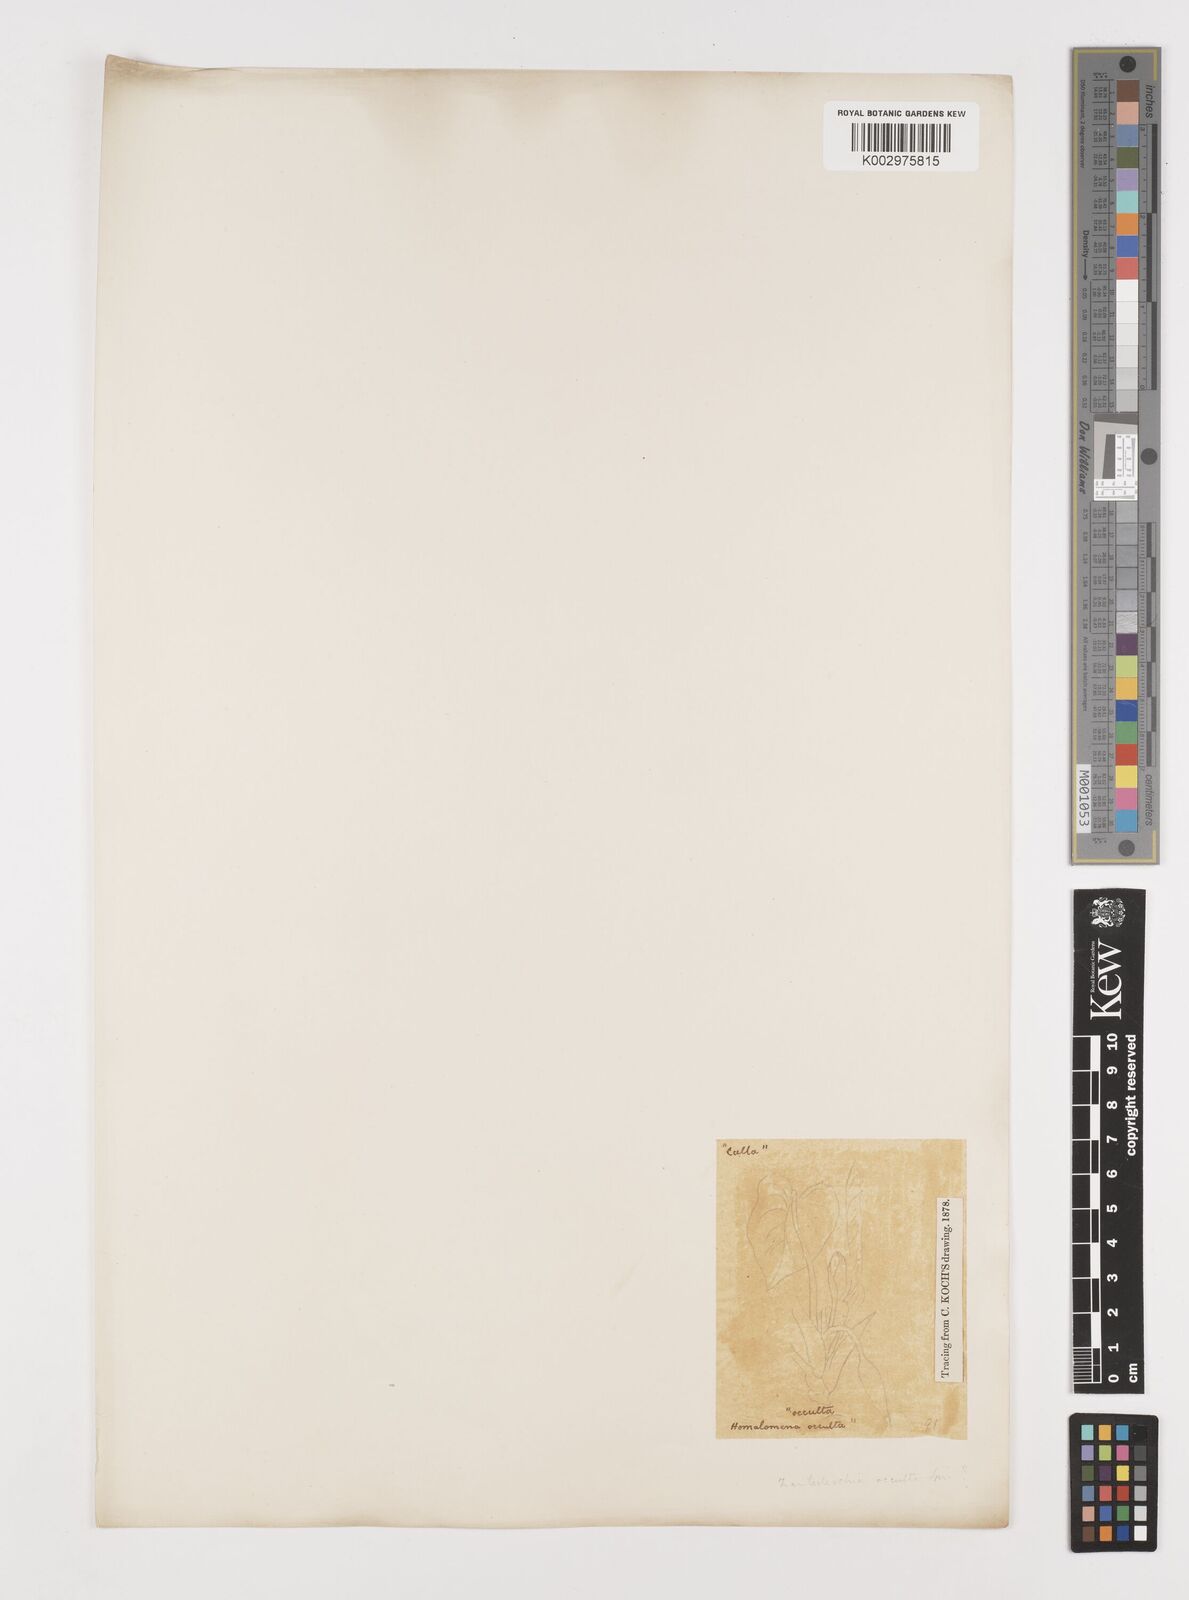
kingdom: Plantae
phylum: Tracheophyta
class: Liliopsida
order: Alismatales
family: Araceae
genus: Homalomena
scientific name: Homalomena occulta
